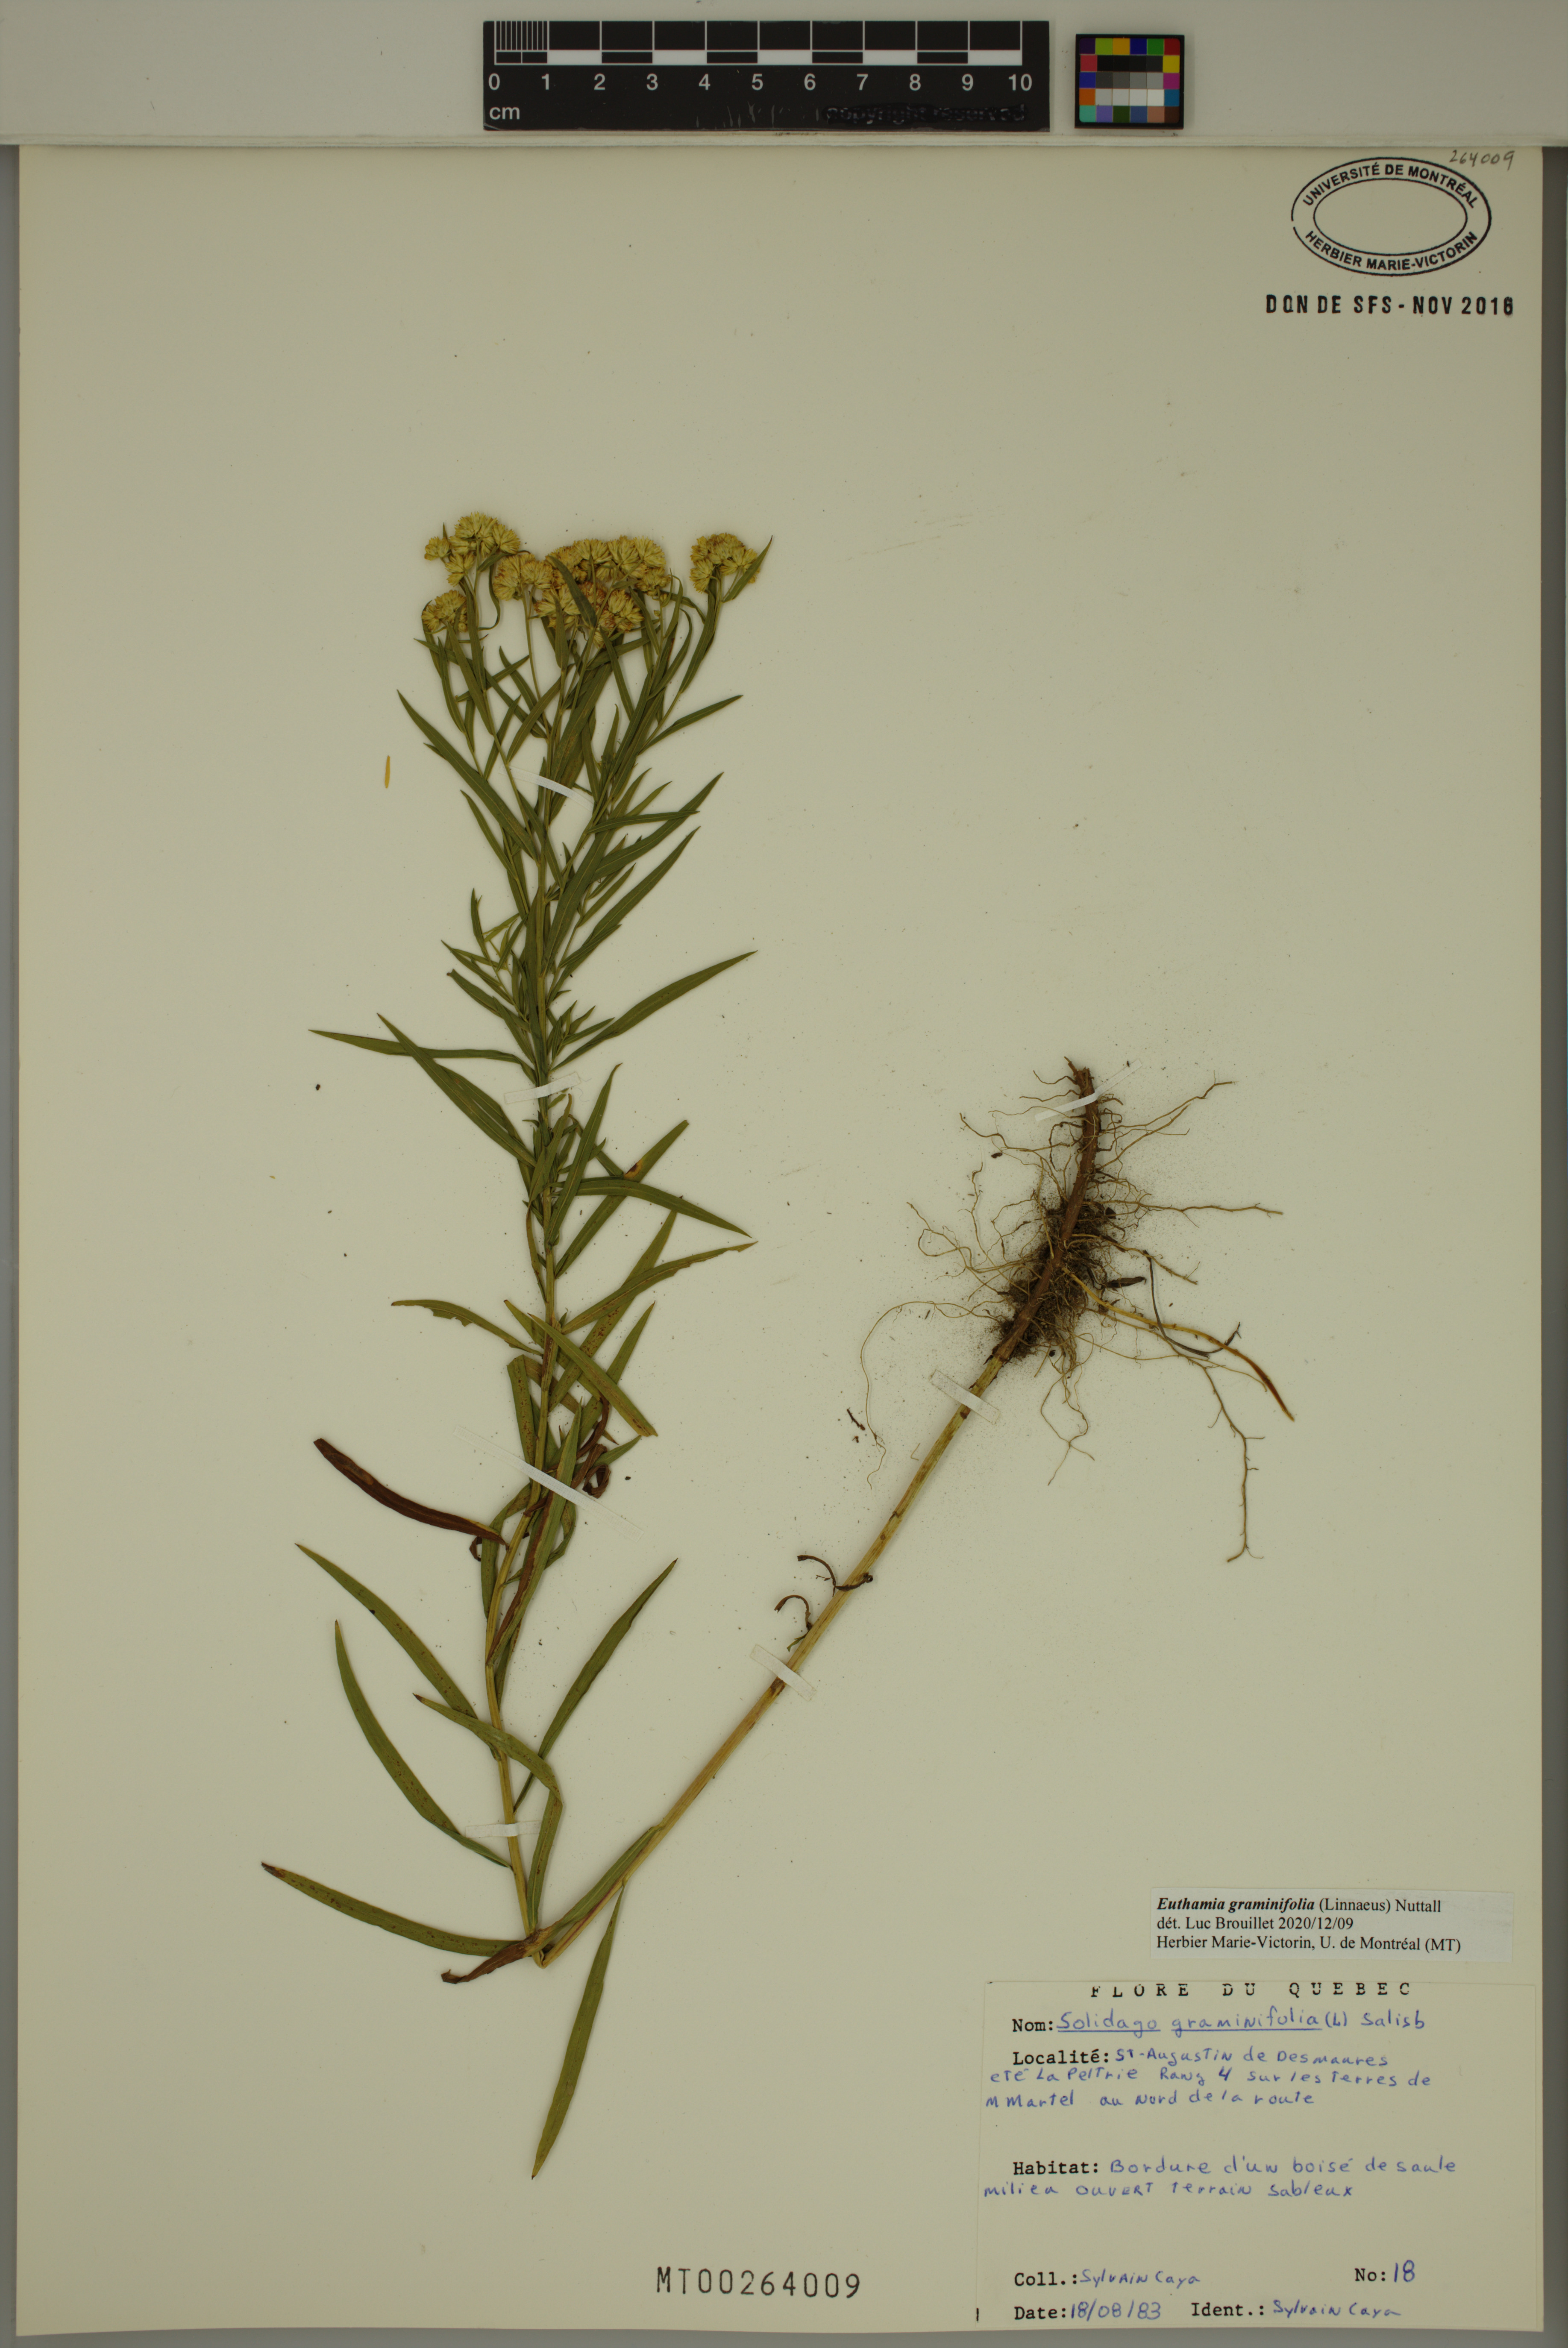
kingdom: Plantae
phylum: Tracheophyta
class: Magnoliopsida
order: Asterales
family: Asteraceae
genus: Euthamia
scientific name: Euthamia graminifolia
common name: Common goldentop
